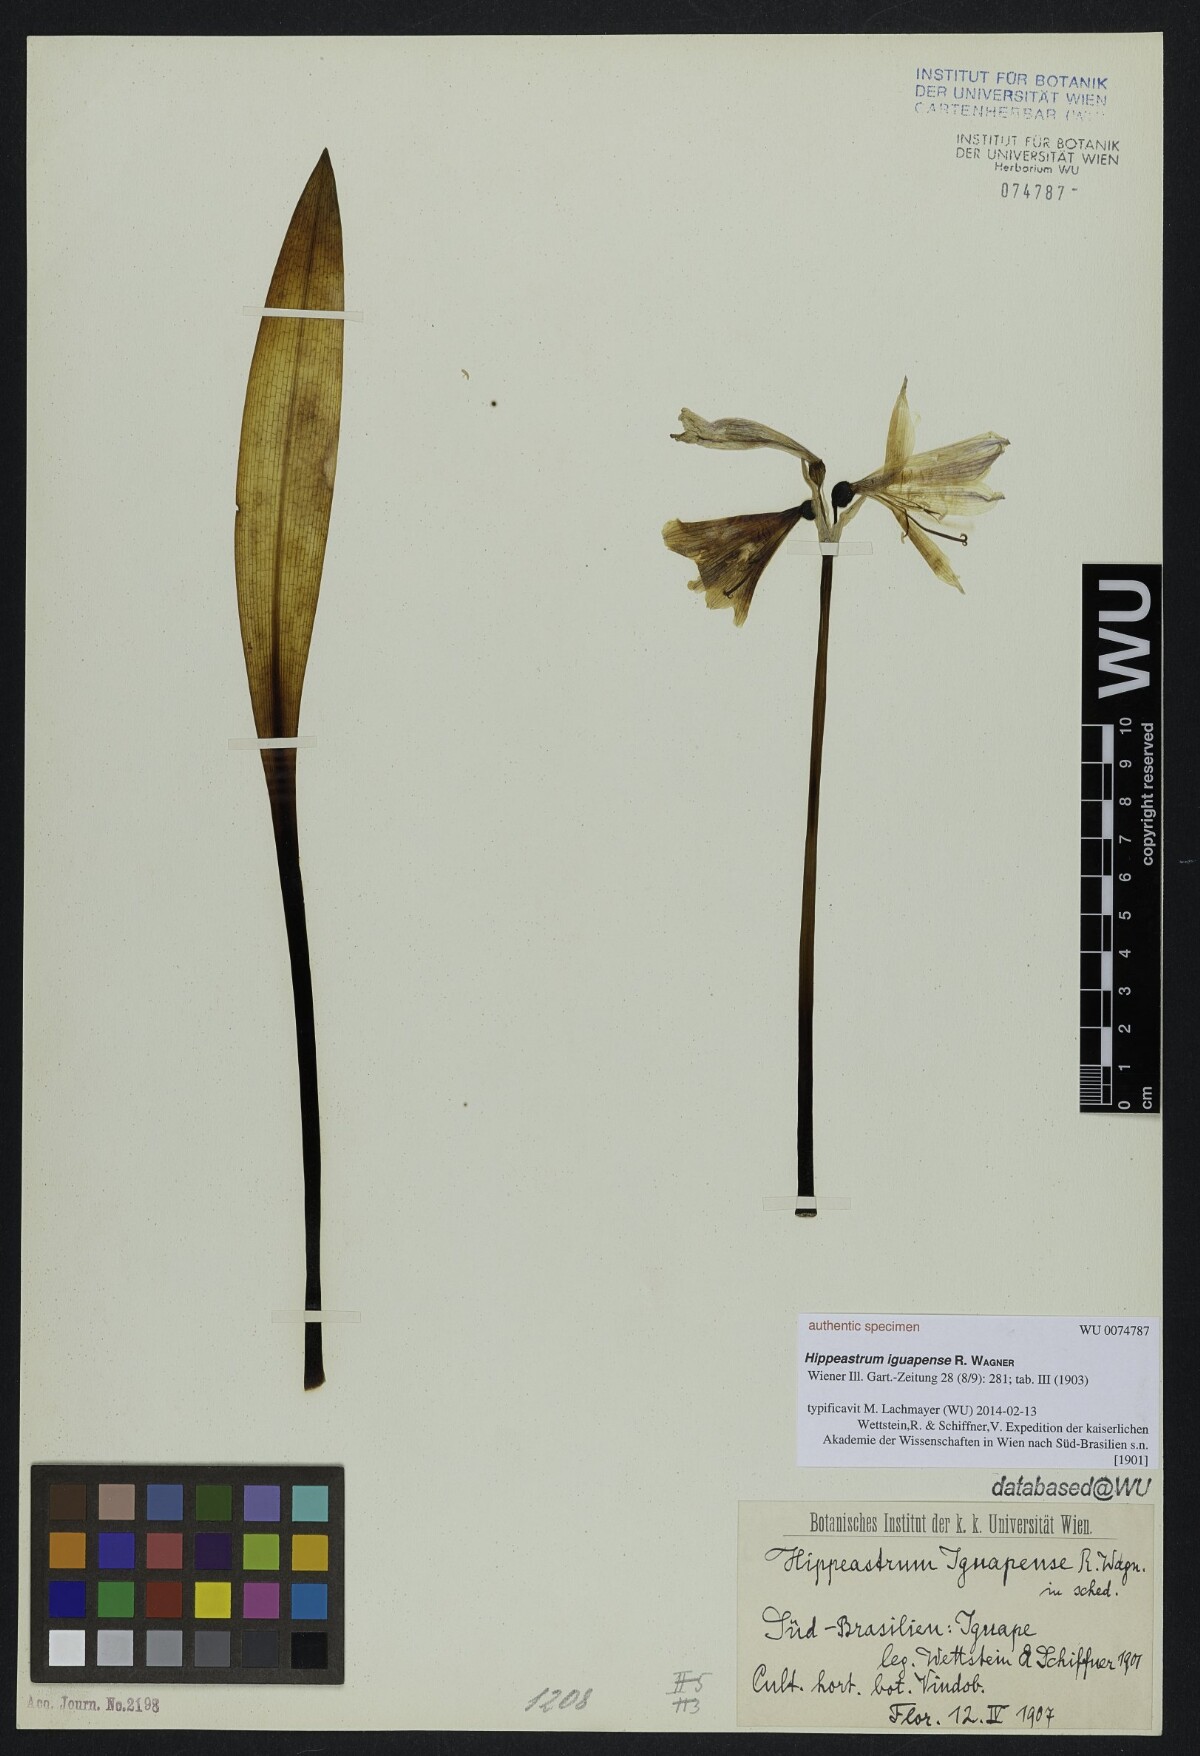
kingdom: Plantae
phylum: Tracheophyta
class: Liliopsida
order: Asparagales
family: Amaryllidaceae
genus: Zephyranthes
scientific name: Zephyranthes blumenavia
